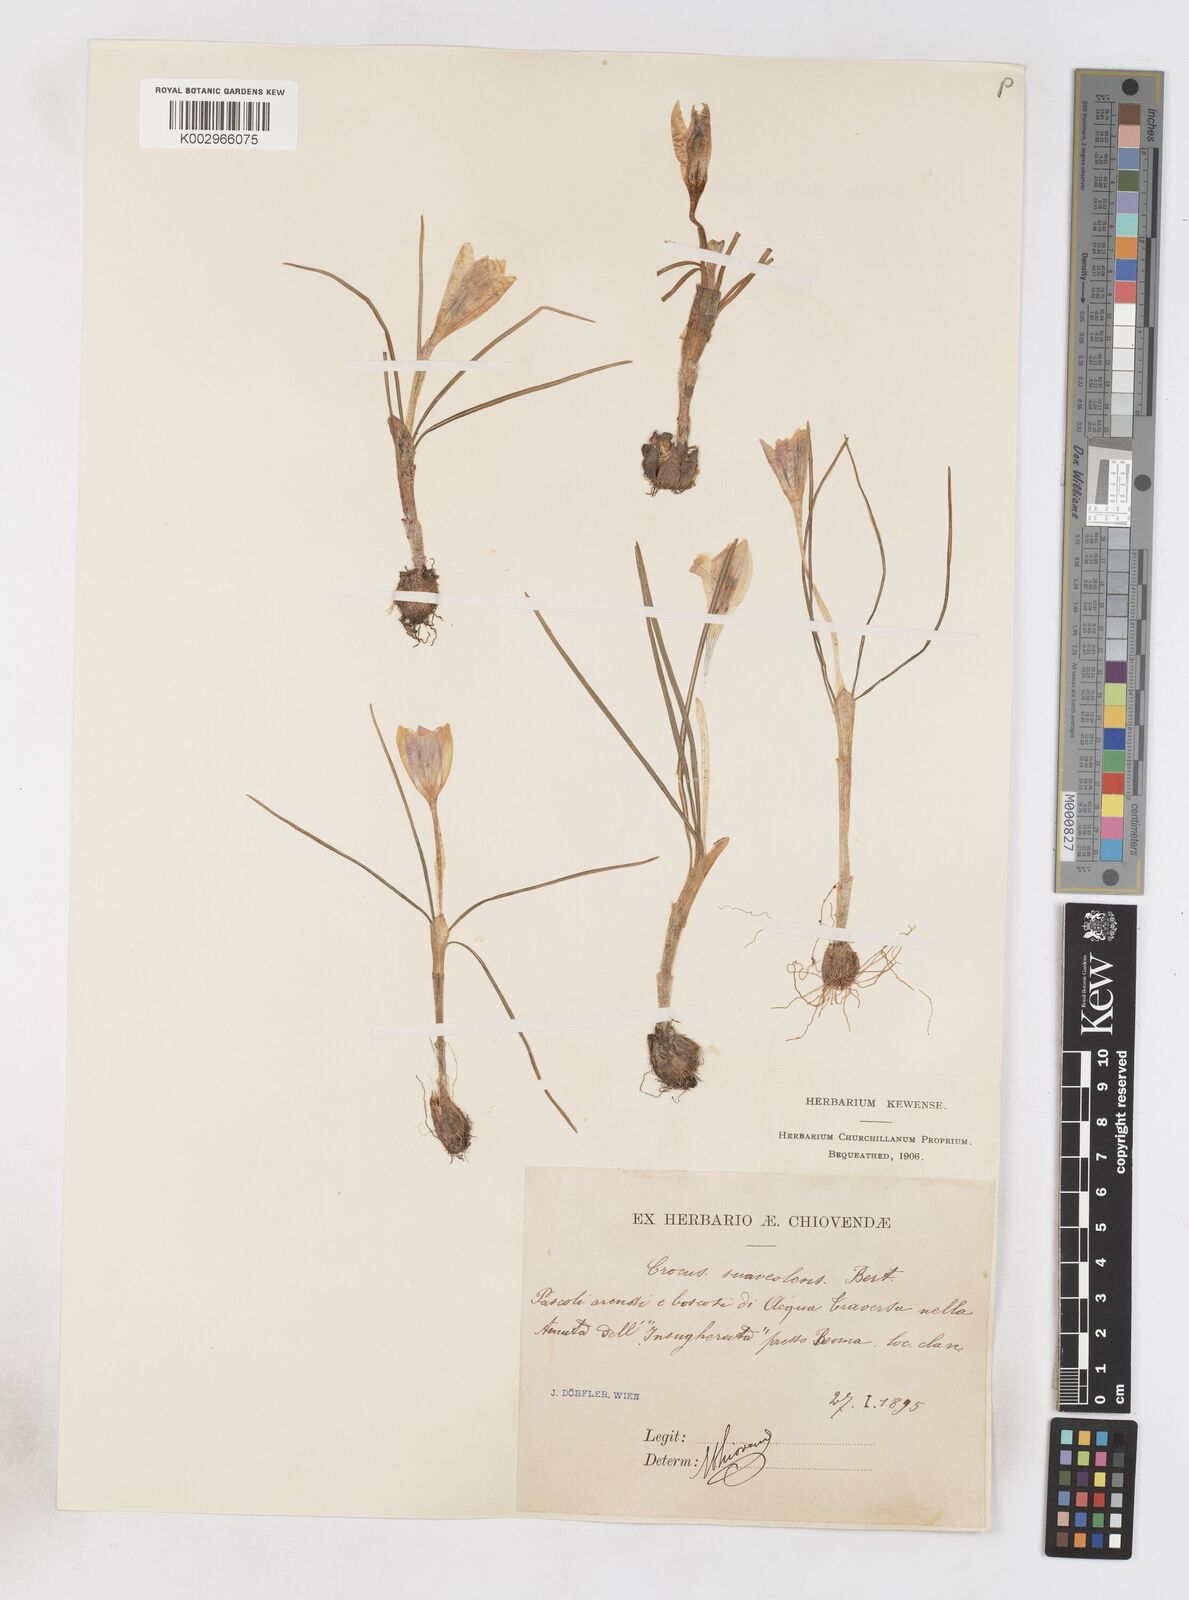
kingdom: Plantae
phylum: Tracheophyta
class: Liliopsida
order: Asparagales
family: Iridaceae
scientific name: Iridaceae
